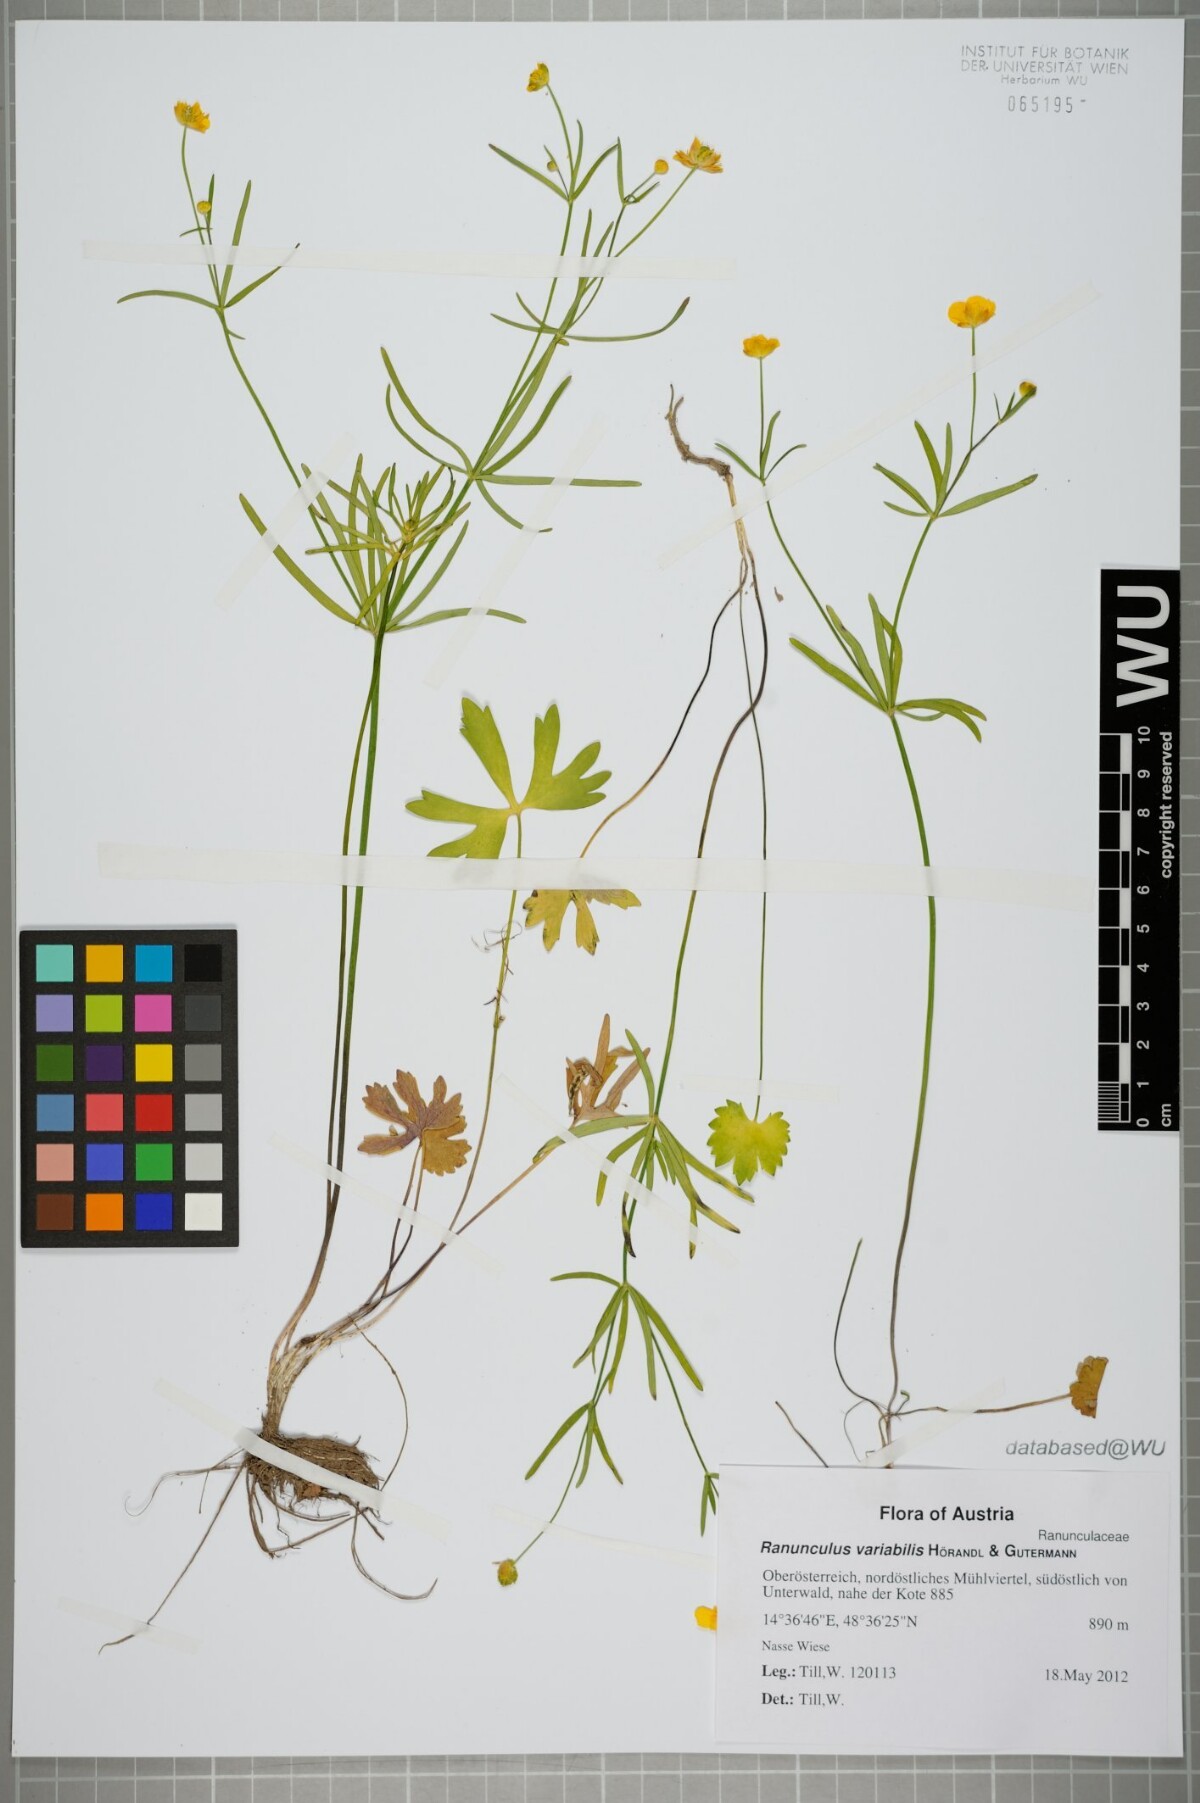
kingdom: Plantae
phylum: Tracheophyta
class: Magnoliopsida
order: Ranunculales
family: Ranunculaceae
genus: Ranunculus
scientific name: Ranunculus variabilis
